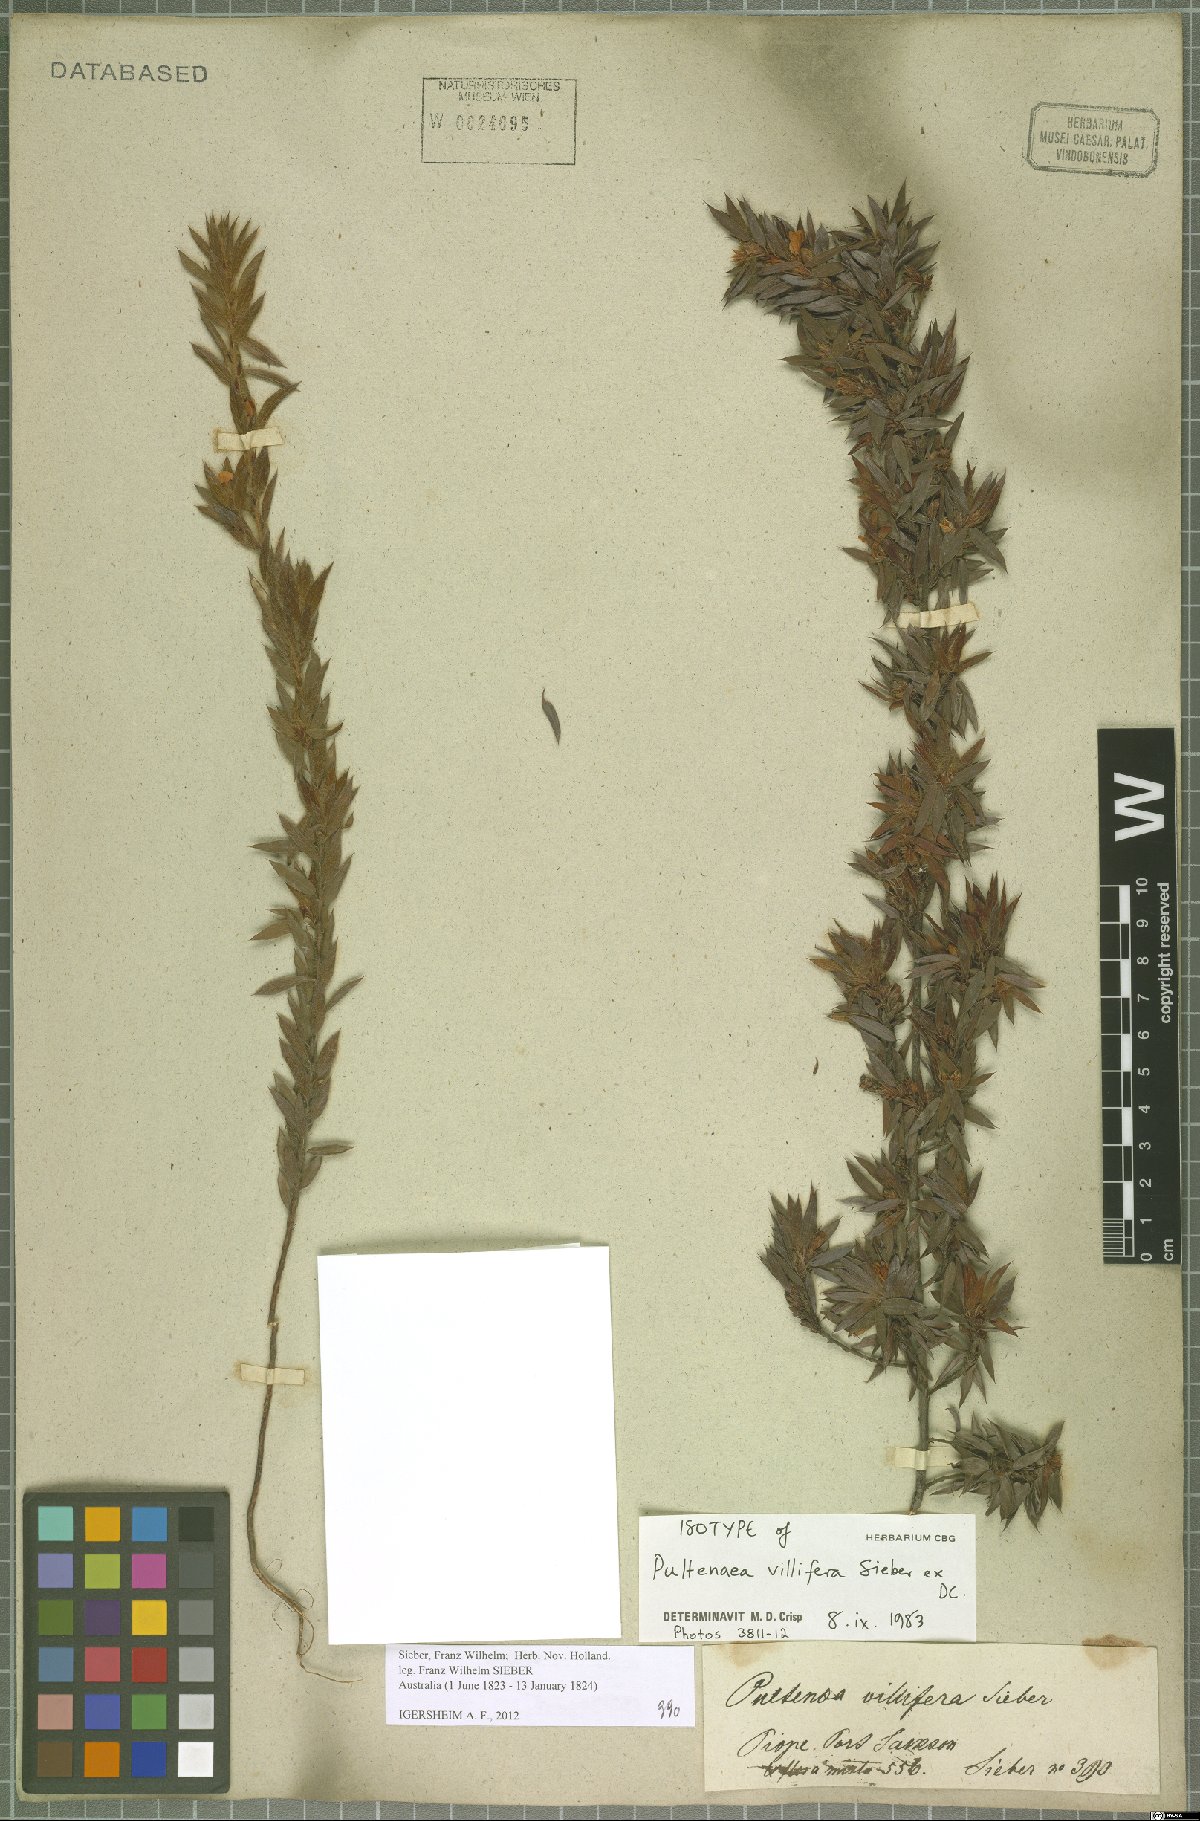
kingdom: Plantae
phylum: Tracheophyta
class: Magnoliopsida
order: Fabales
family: Fabaceae
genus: Pultenaea
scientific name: Pultenaea villifera
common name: Yellow bush-pea
